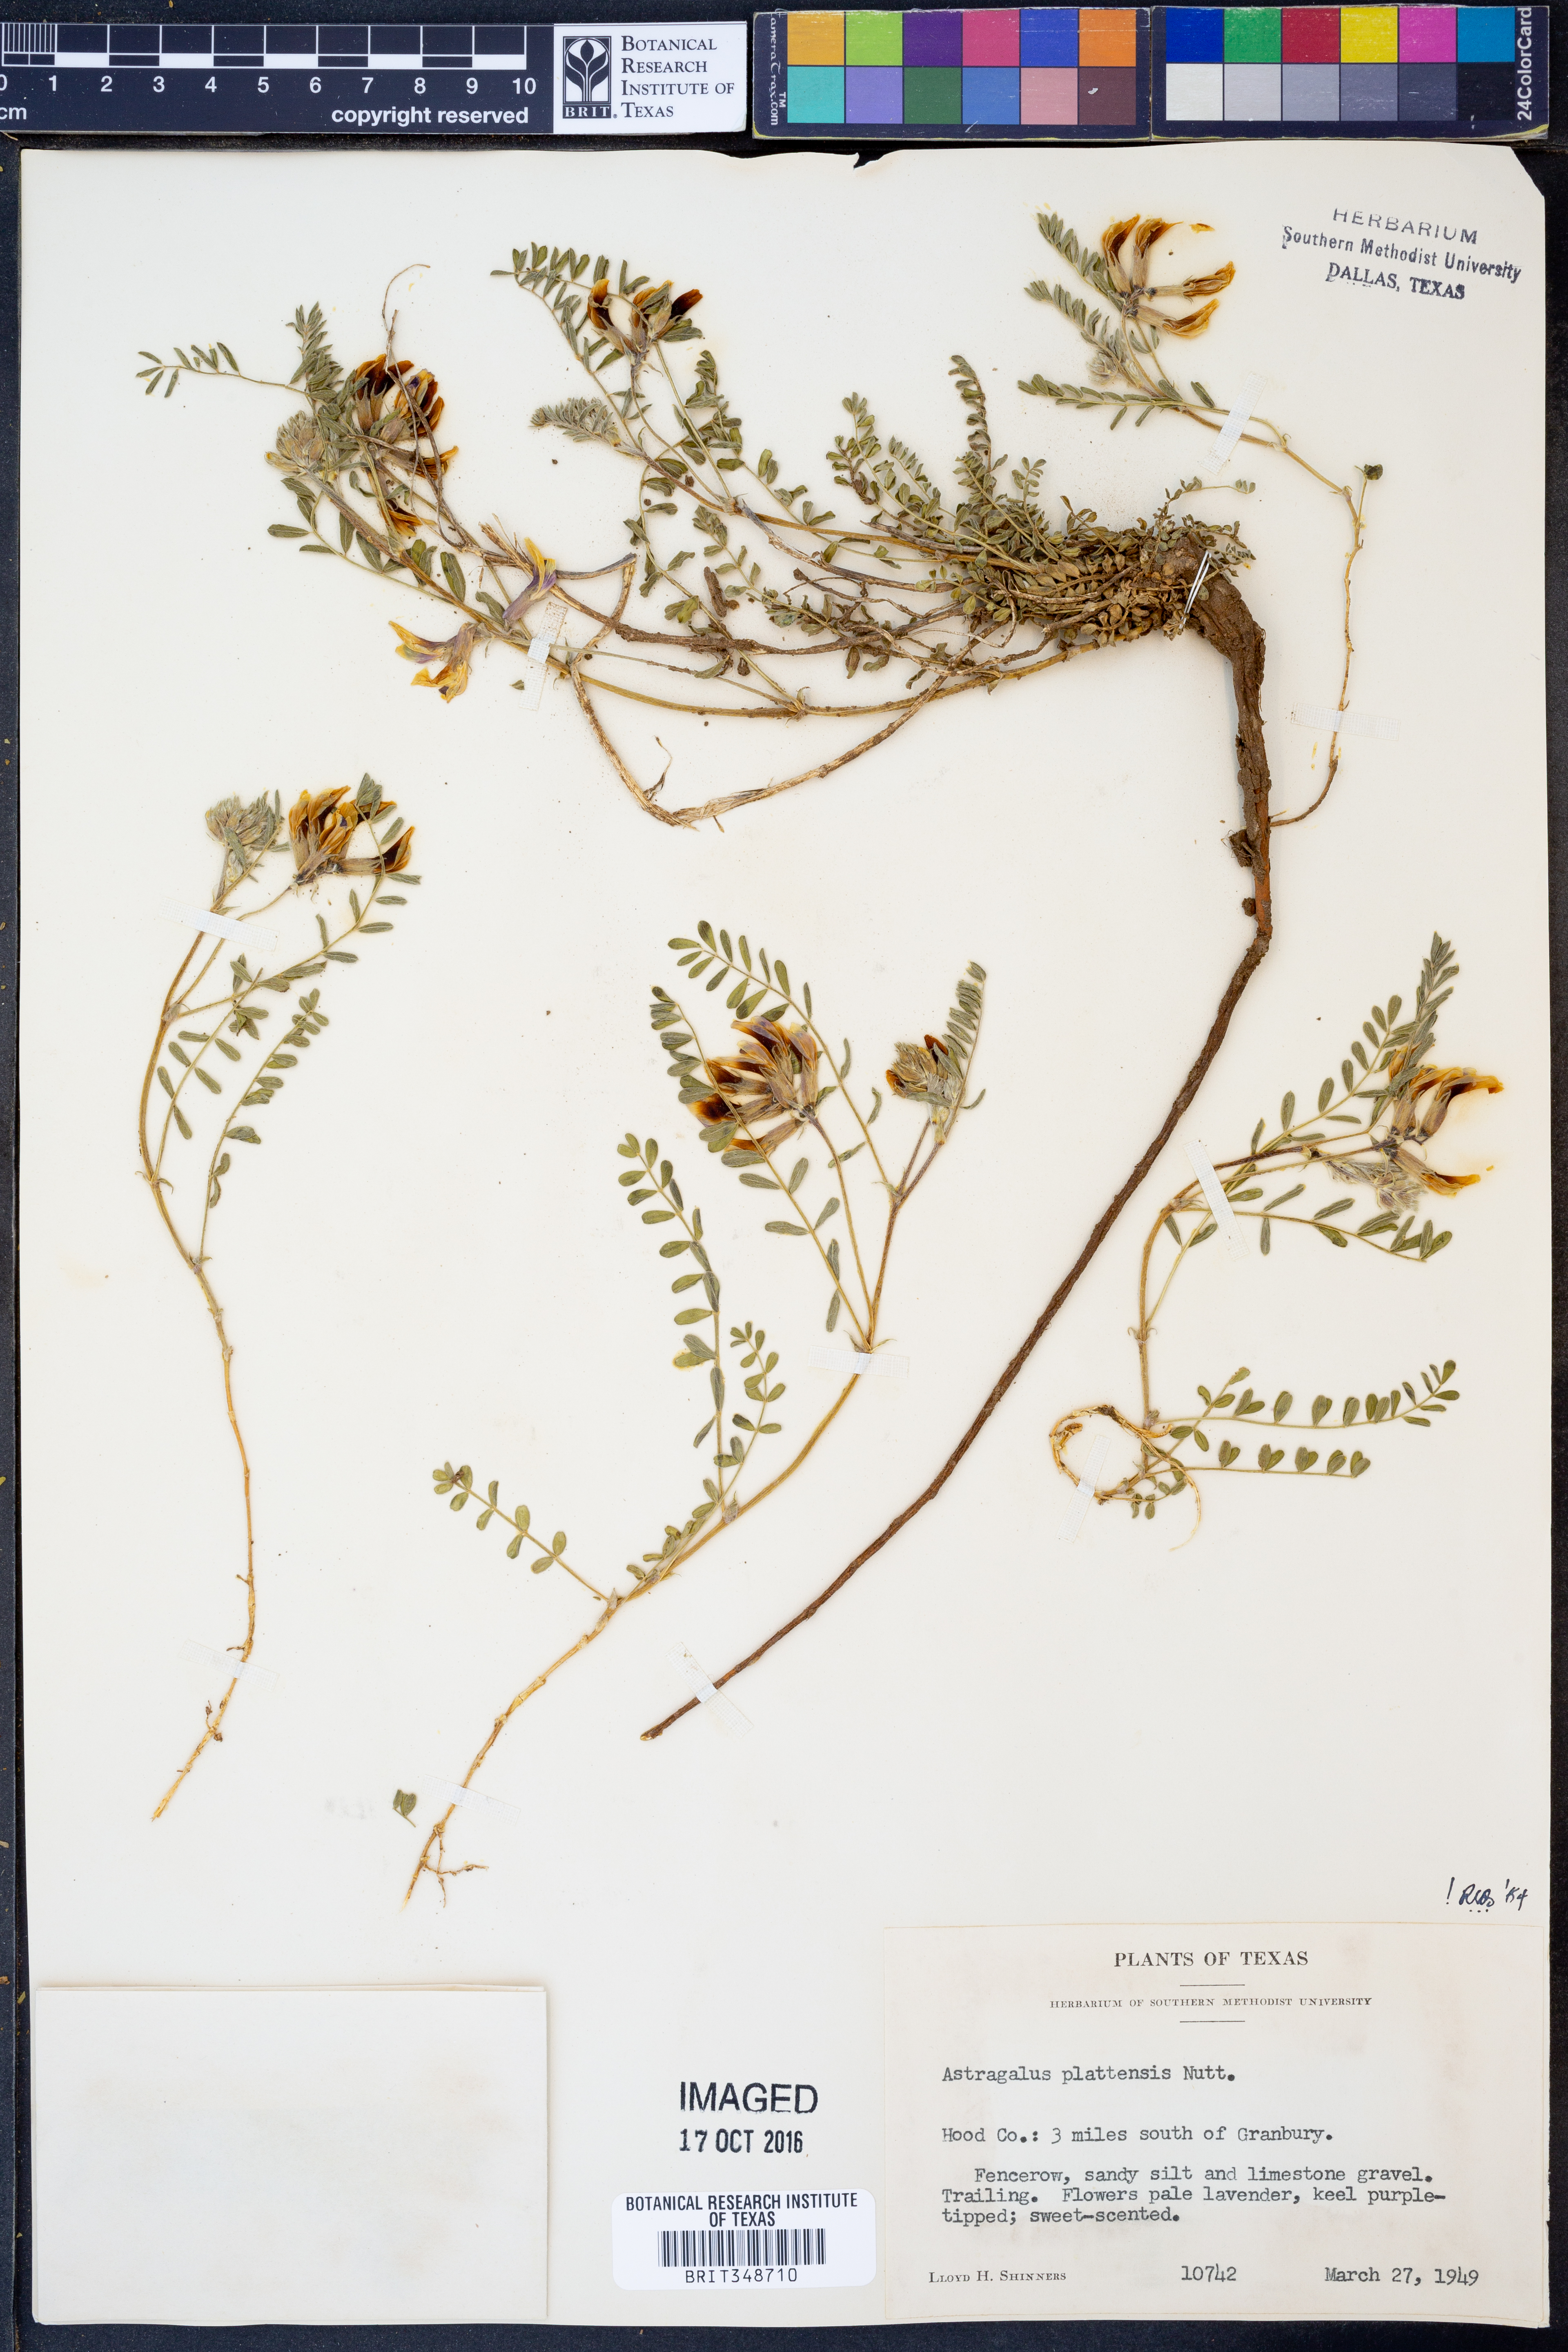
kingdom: Plantae
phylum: Tracheophyta
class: Magnoliopsida
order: Fabales
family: Fabaceae
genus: Astragalus
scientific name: Astragalus plattensis
